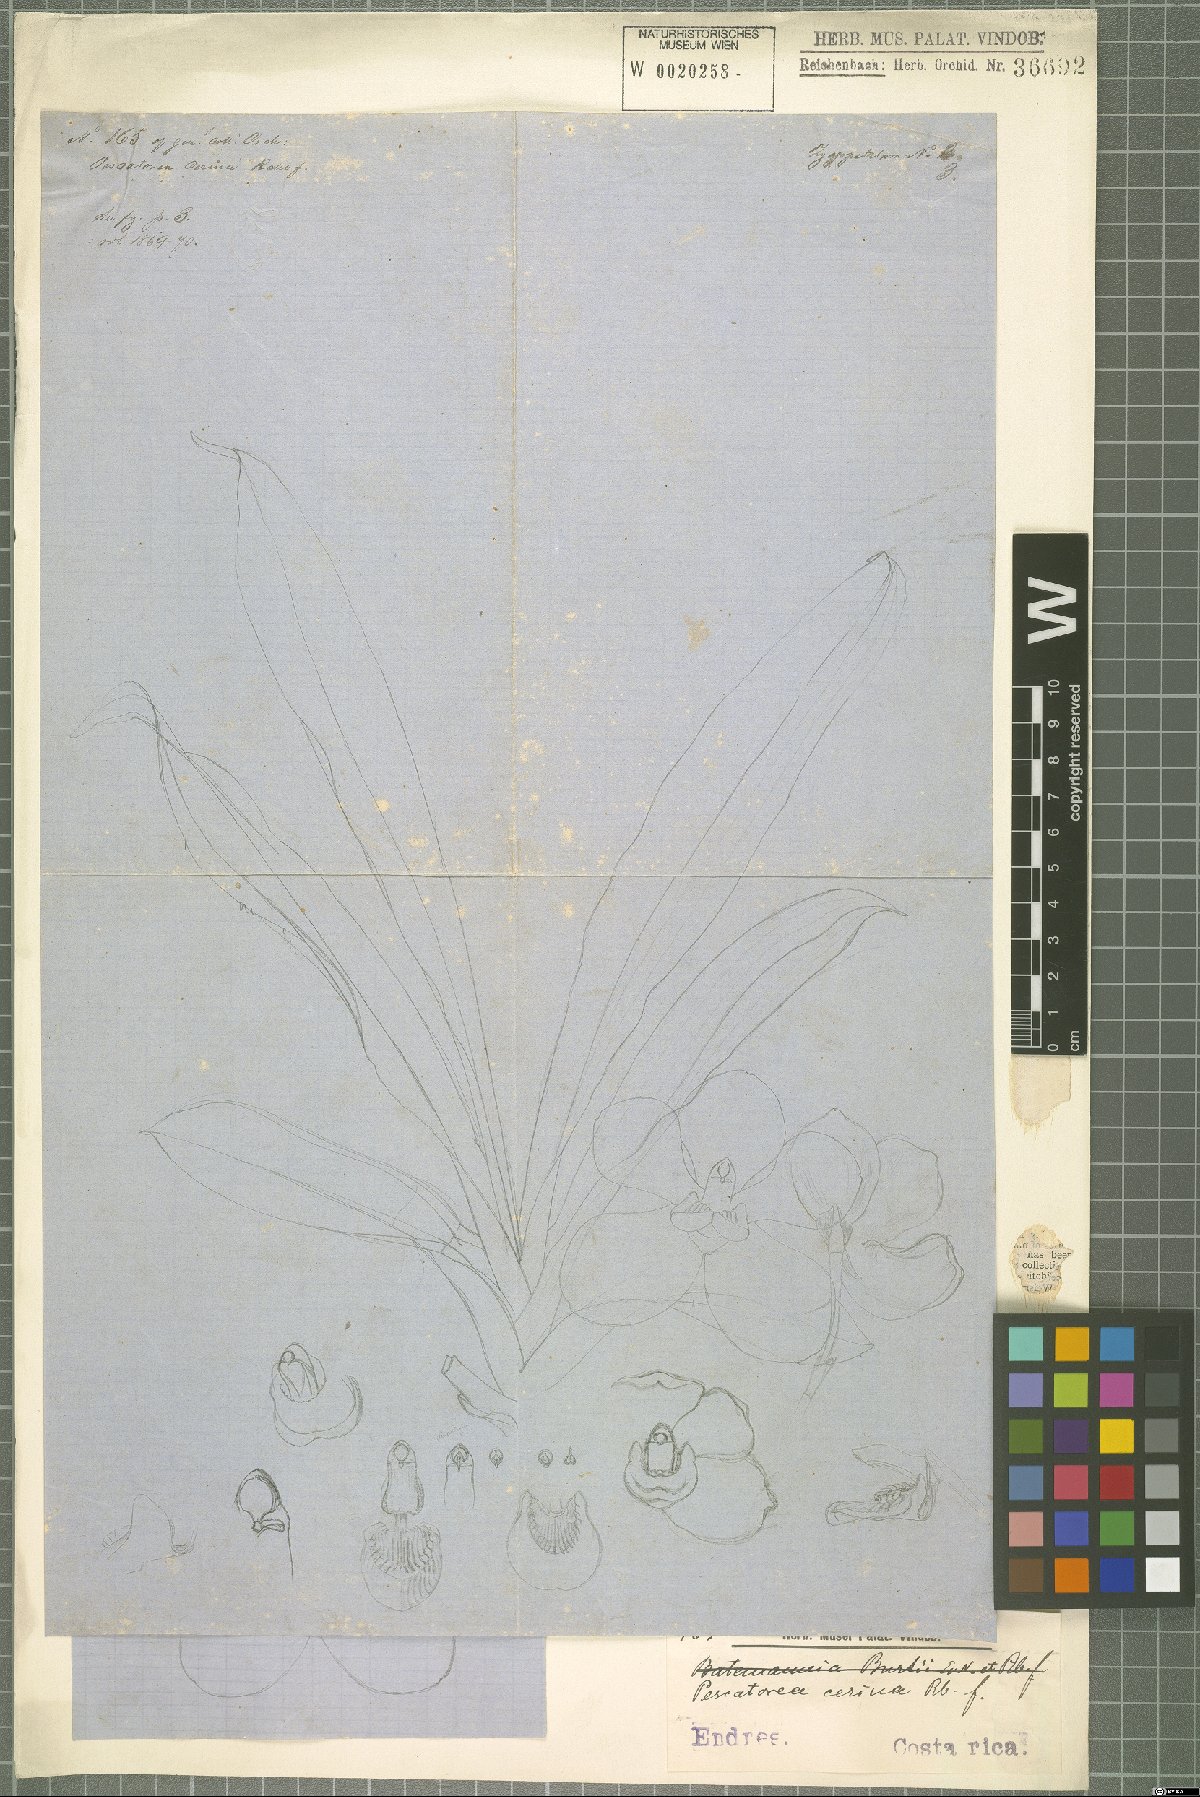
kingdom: Plantae
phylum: Tracheophyta
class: Liliopsida
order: Asparagales
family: Orchidaceae
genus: Pescatoria
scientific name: Pescatoria cerina
